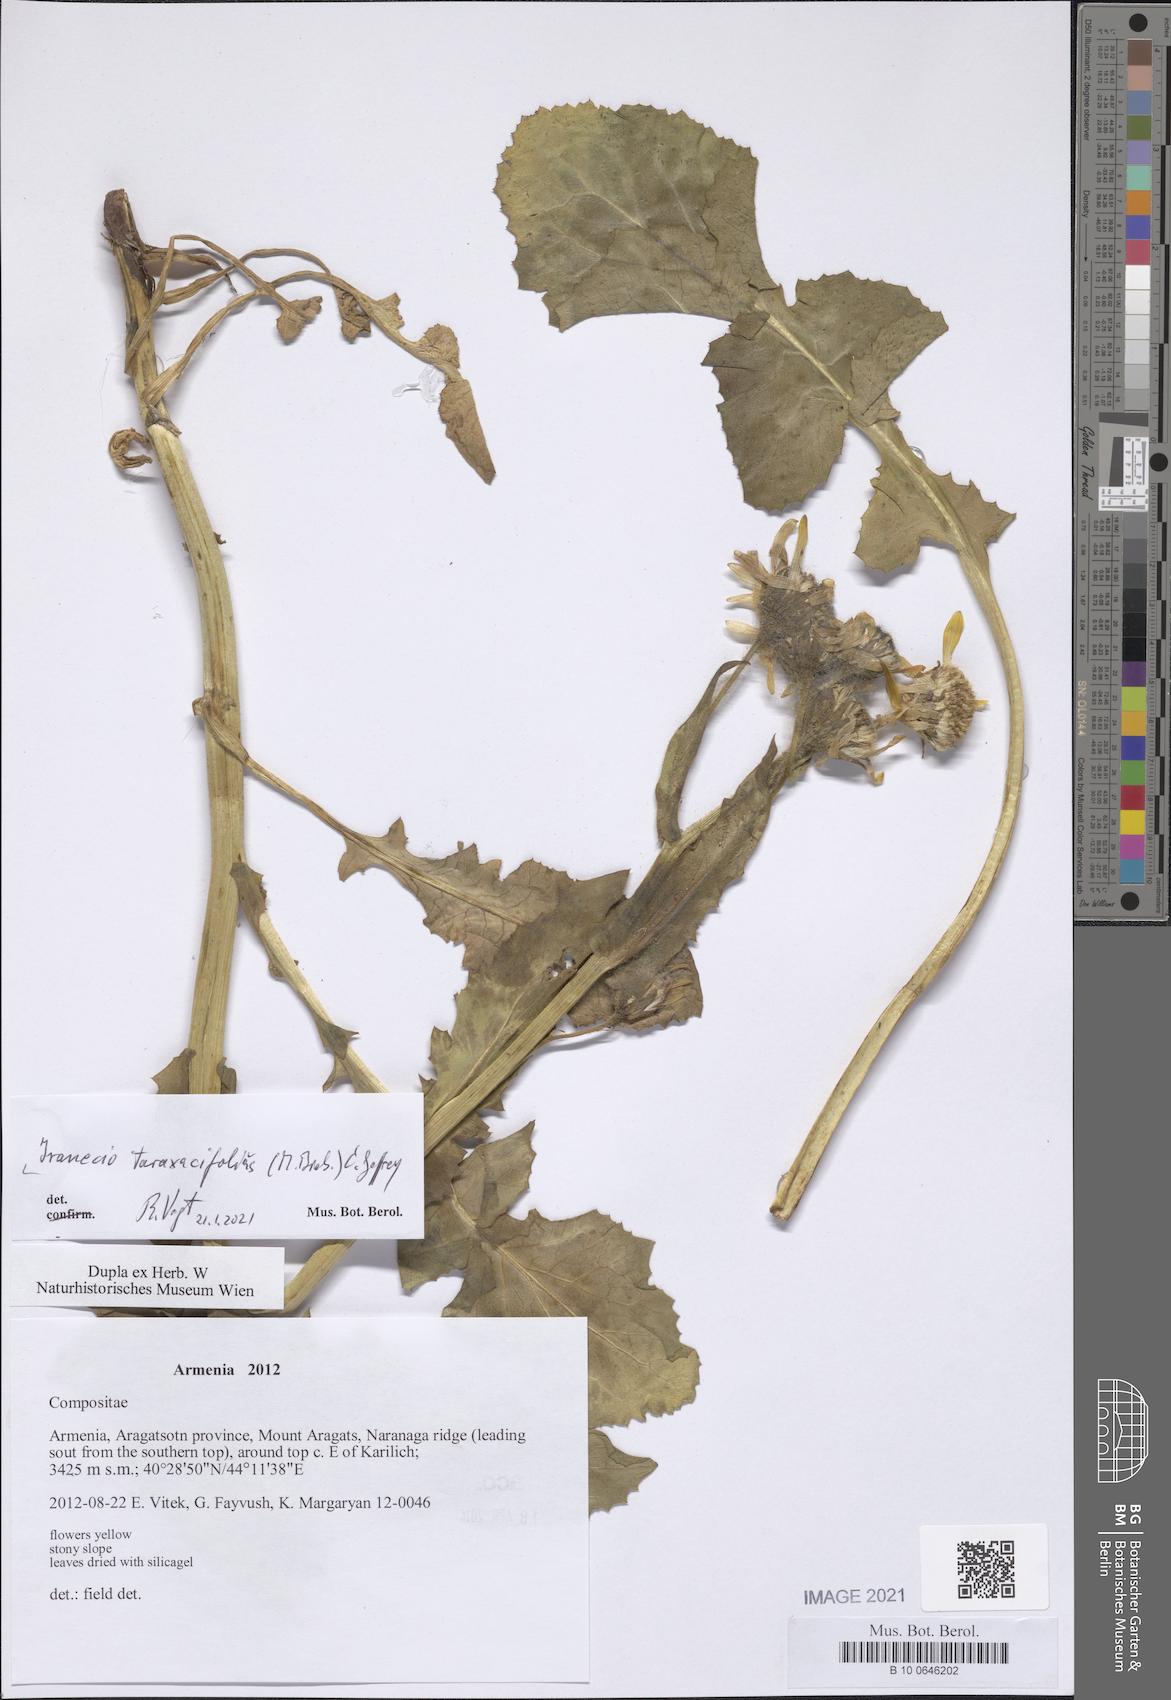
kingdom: Plantae
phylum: Tracheophyta
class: Magnoliopsida
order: Asterales
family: Asteraceae
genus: Turanecio
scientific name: Turanecio taraxacifolius
